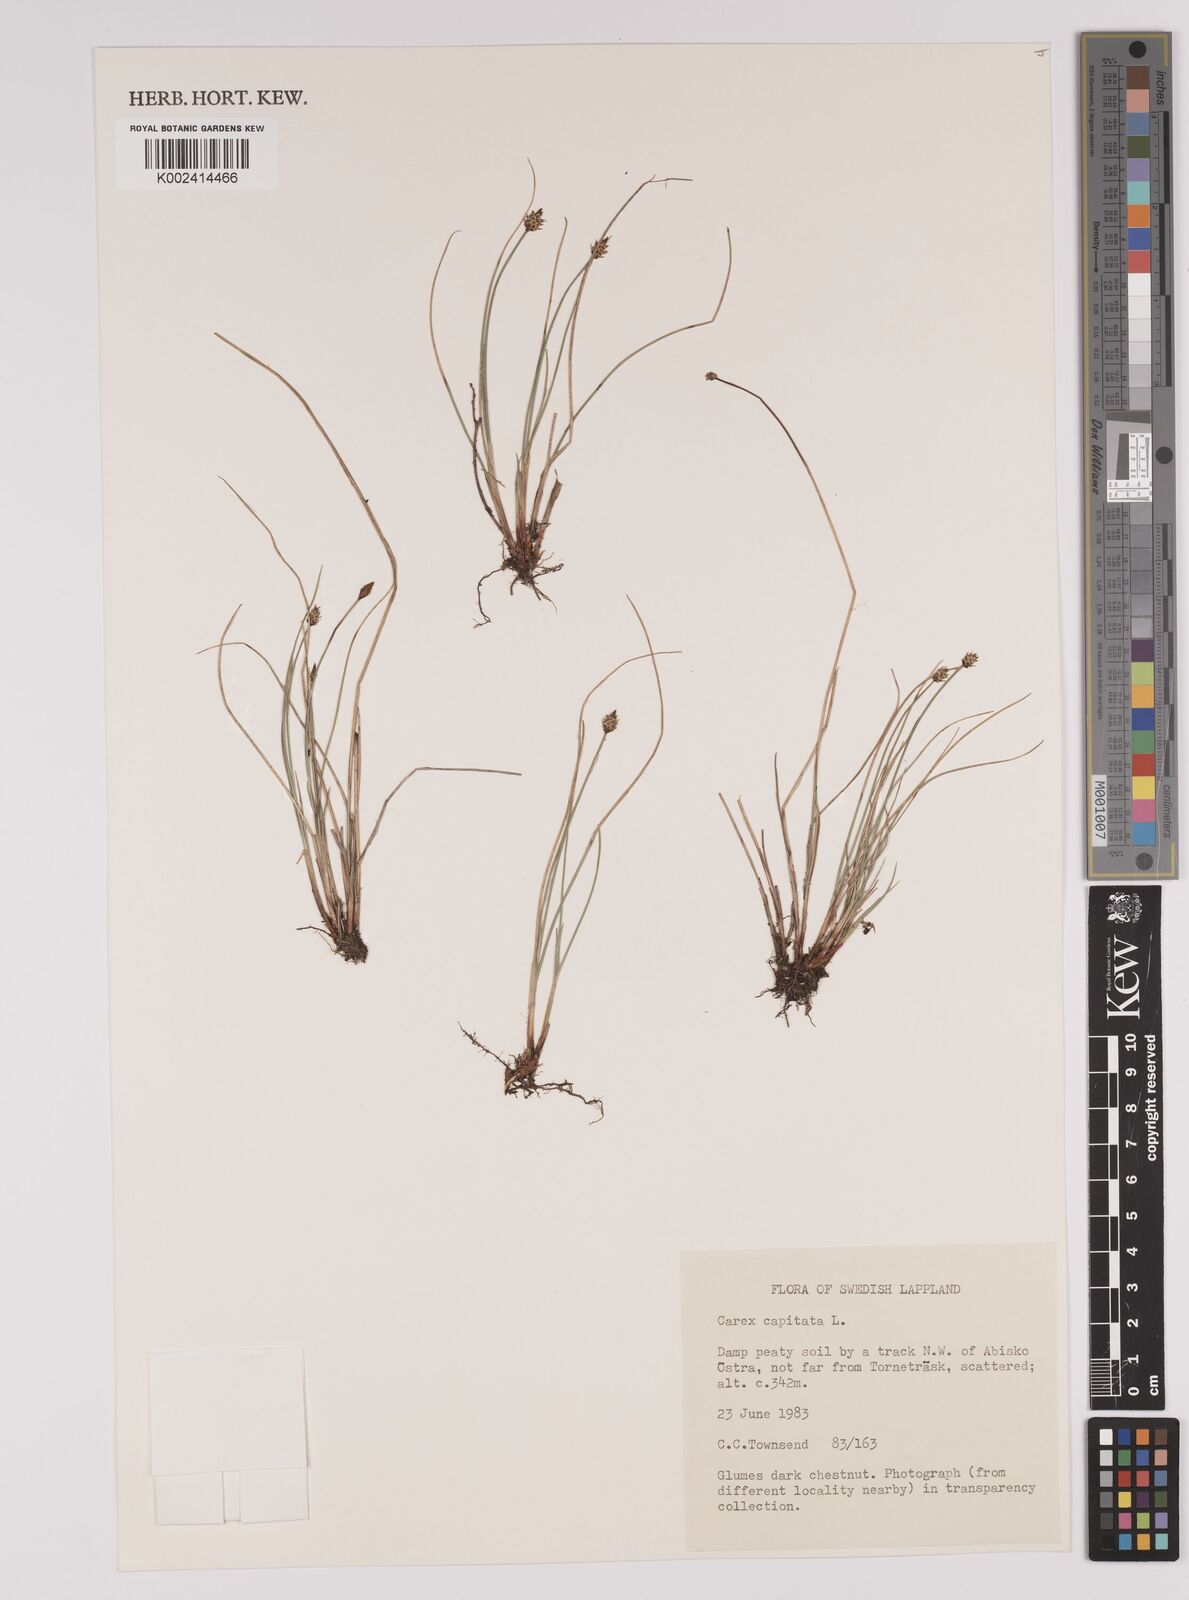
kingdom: Plantae
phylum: Tracheophyta
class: Liliopsida
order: Poales
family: Cyperaceae
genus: Carex
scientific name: Carex capitata
